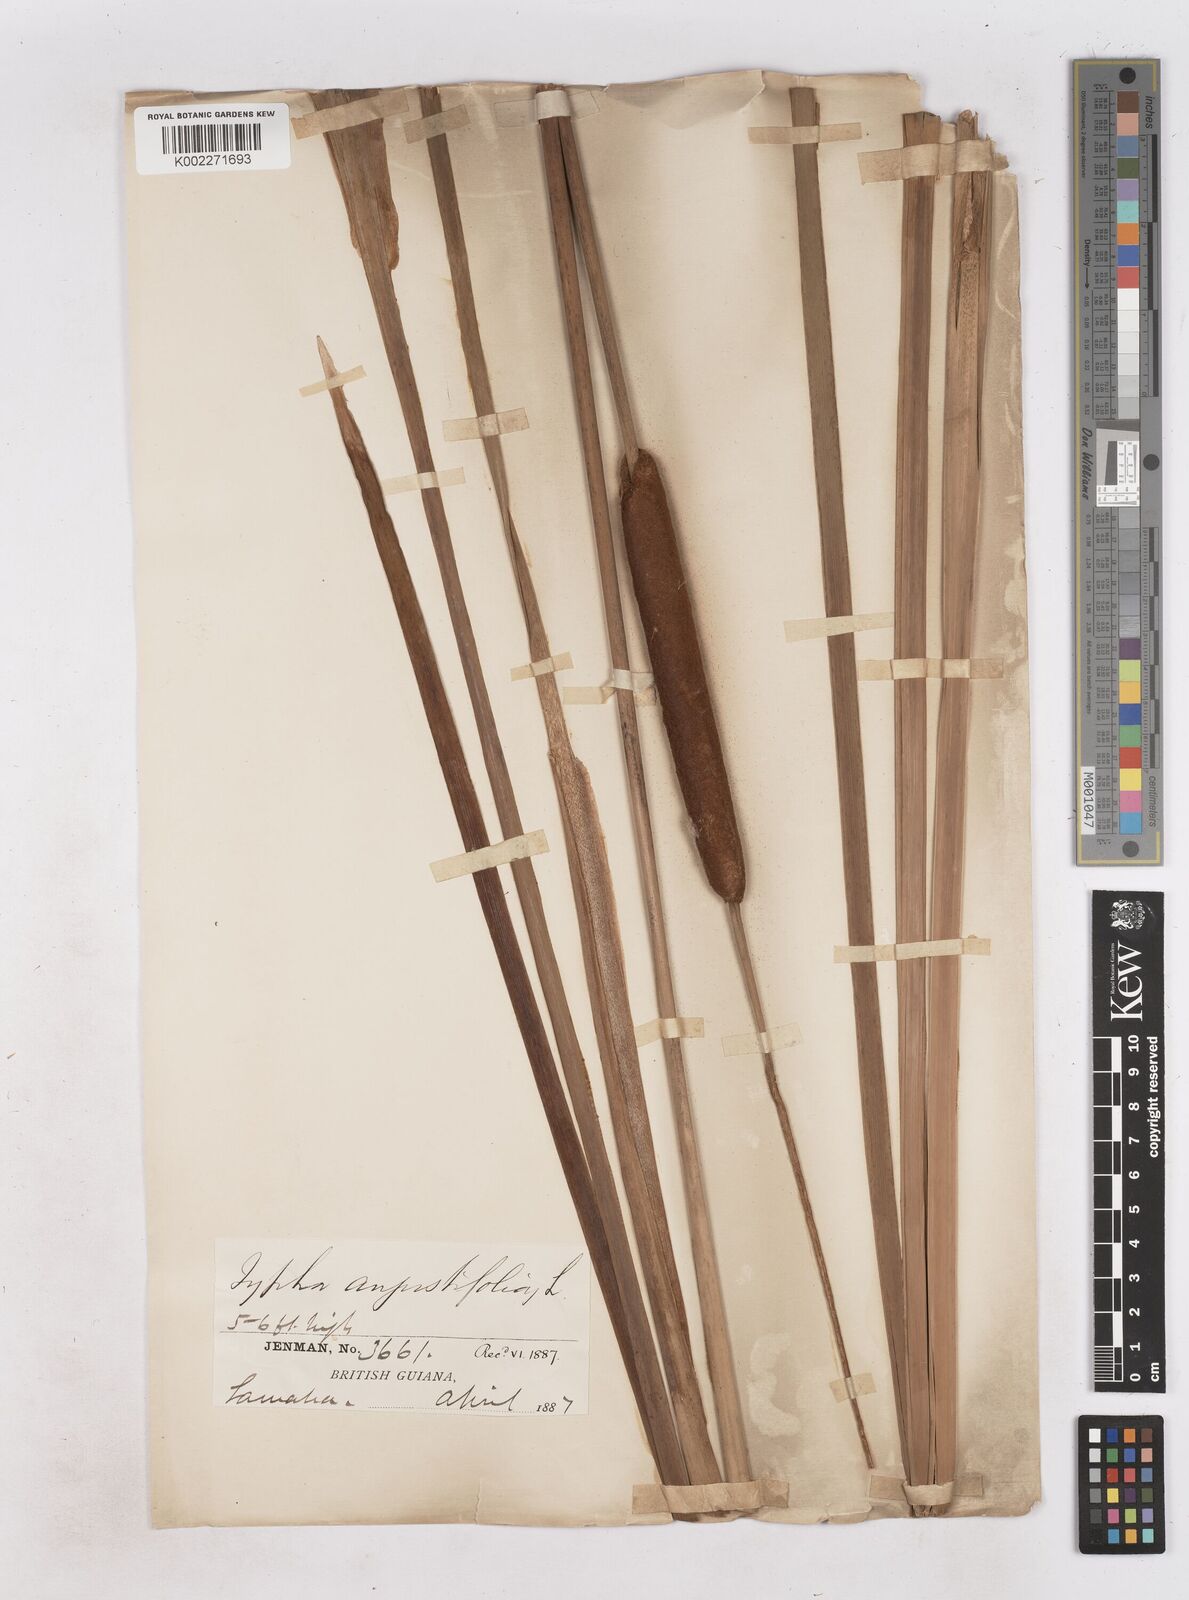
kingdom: Plantae
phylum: Tracheophyta
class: Liliopsida
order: Poales
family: Typhaceae
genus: Typha
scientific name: Typha domingensis
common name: Southern cattail
